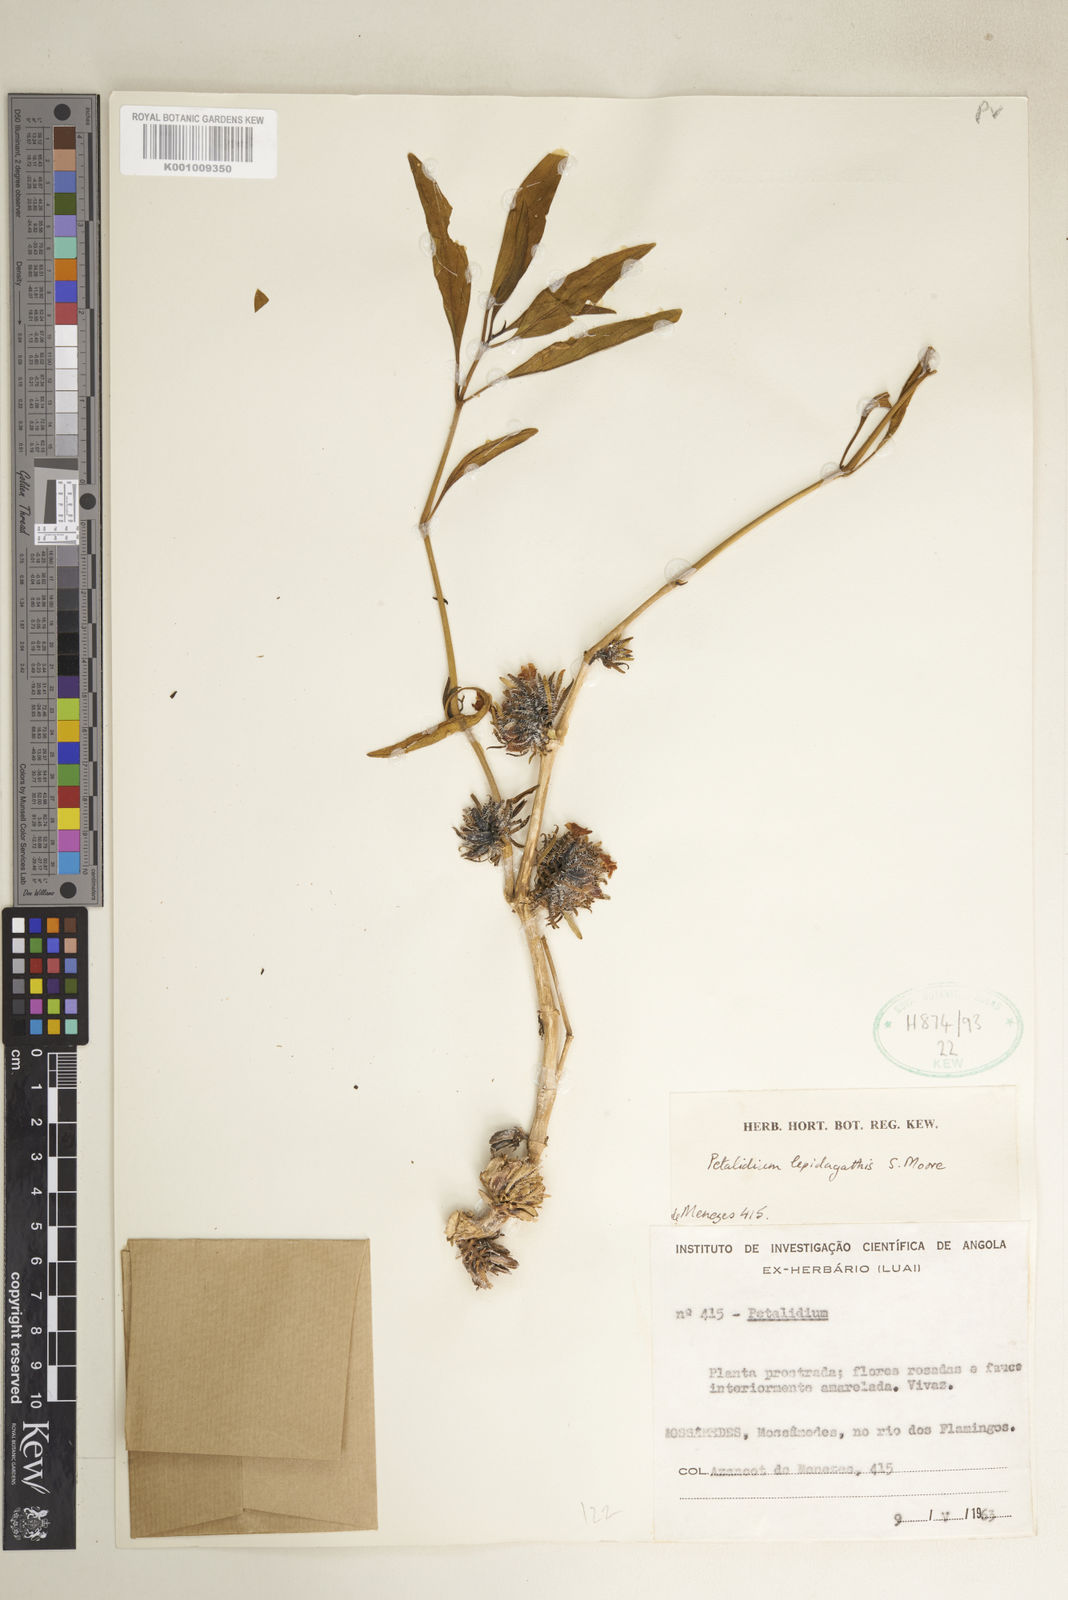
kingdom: Plantae
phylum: Tracheophyta
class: Magnoliopsida
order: Lamiales
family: Acanthaceae
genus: Petalidium
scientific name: Petalidium lepidagathis
